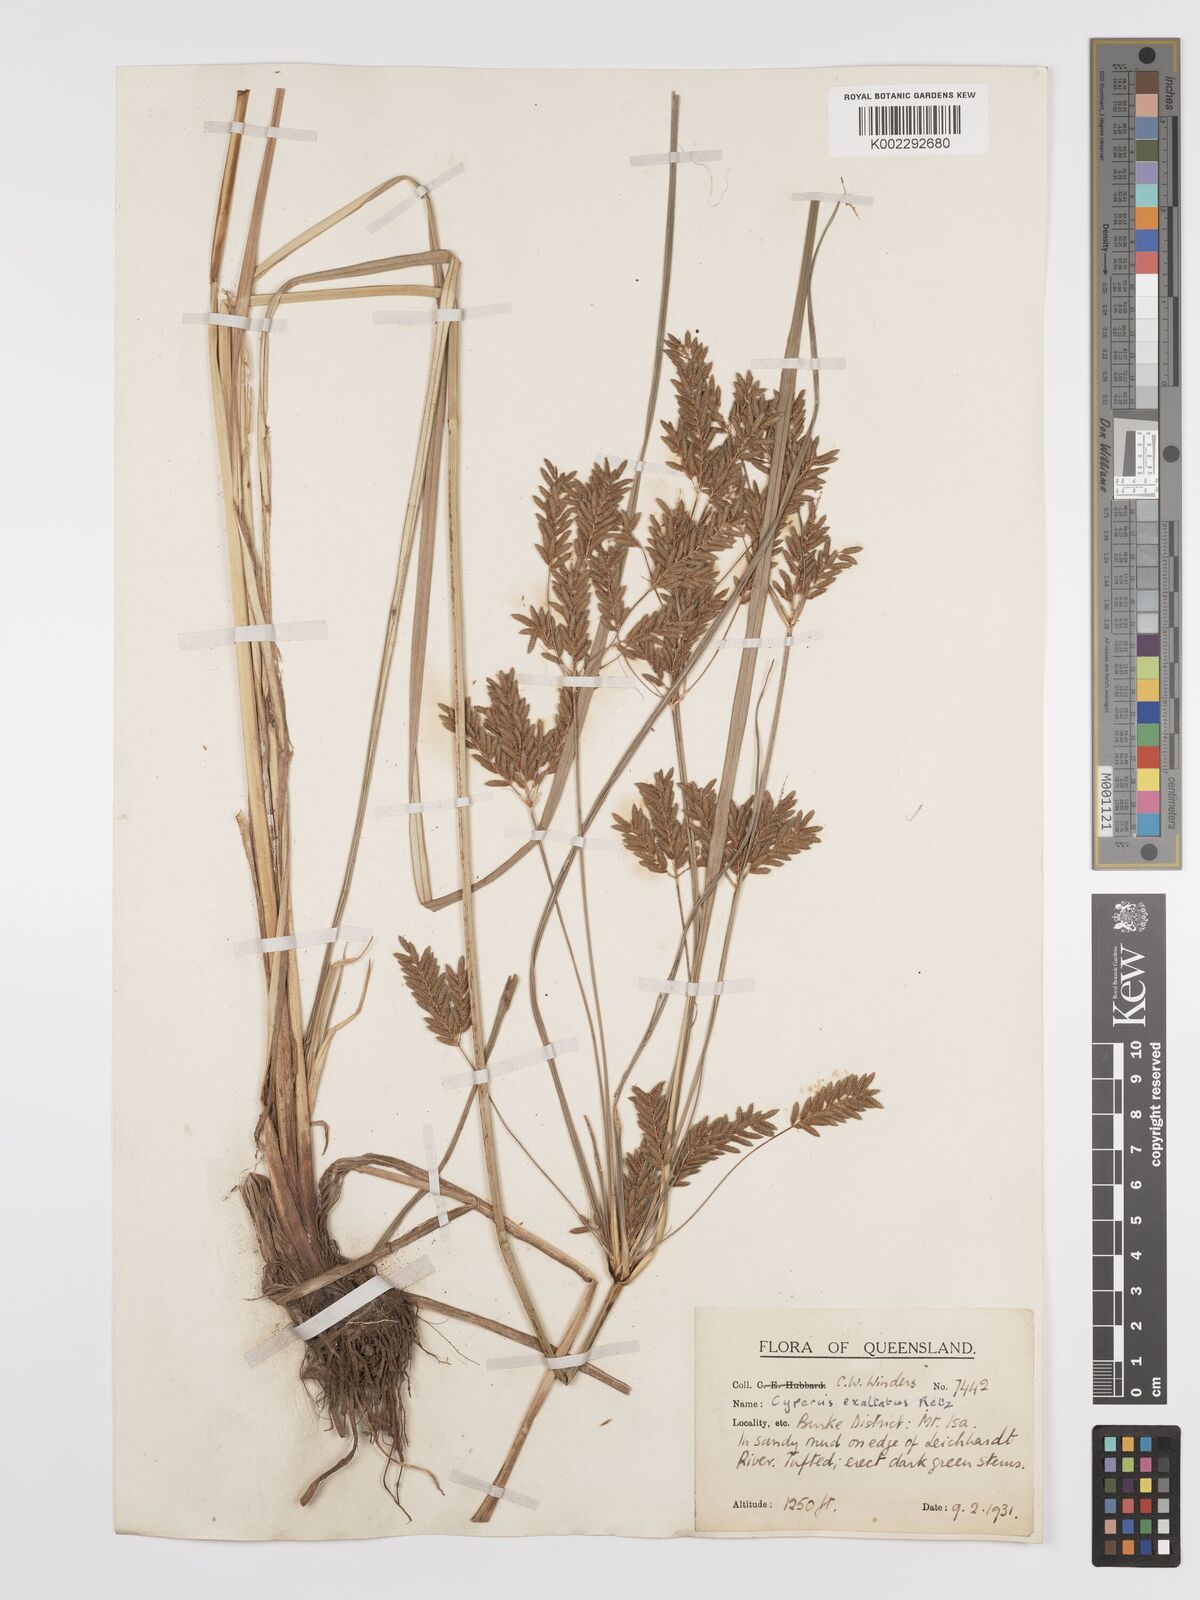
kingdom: Plantae
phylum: Tracheophyta
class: Liliopsida
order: Poales
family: Cyperaceae
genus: Cyperus
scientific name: Cyperus exaltatus
